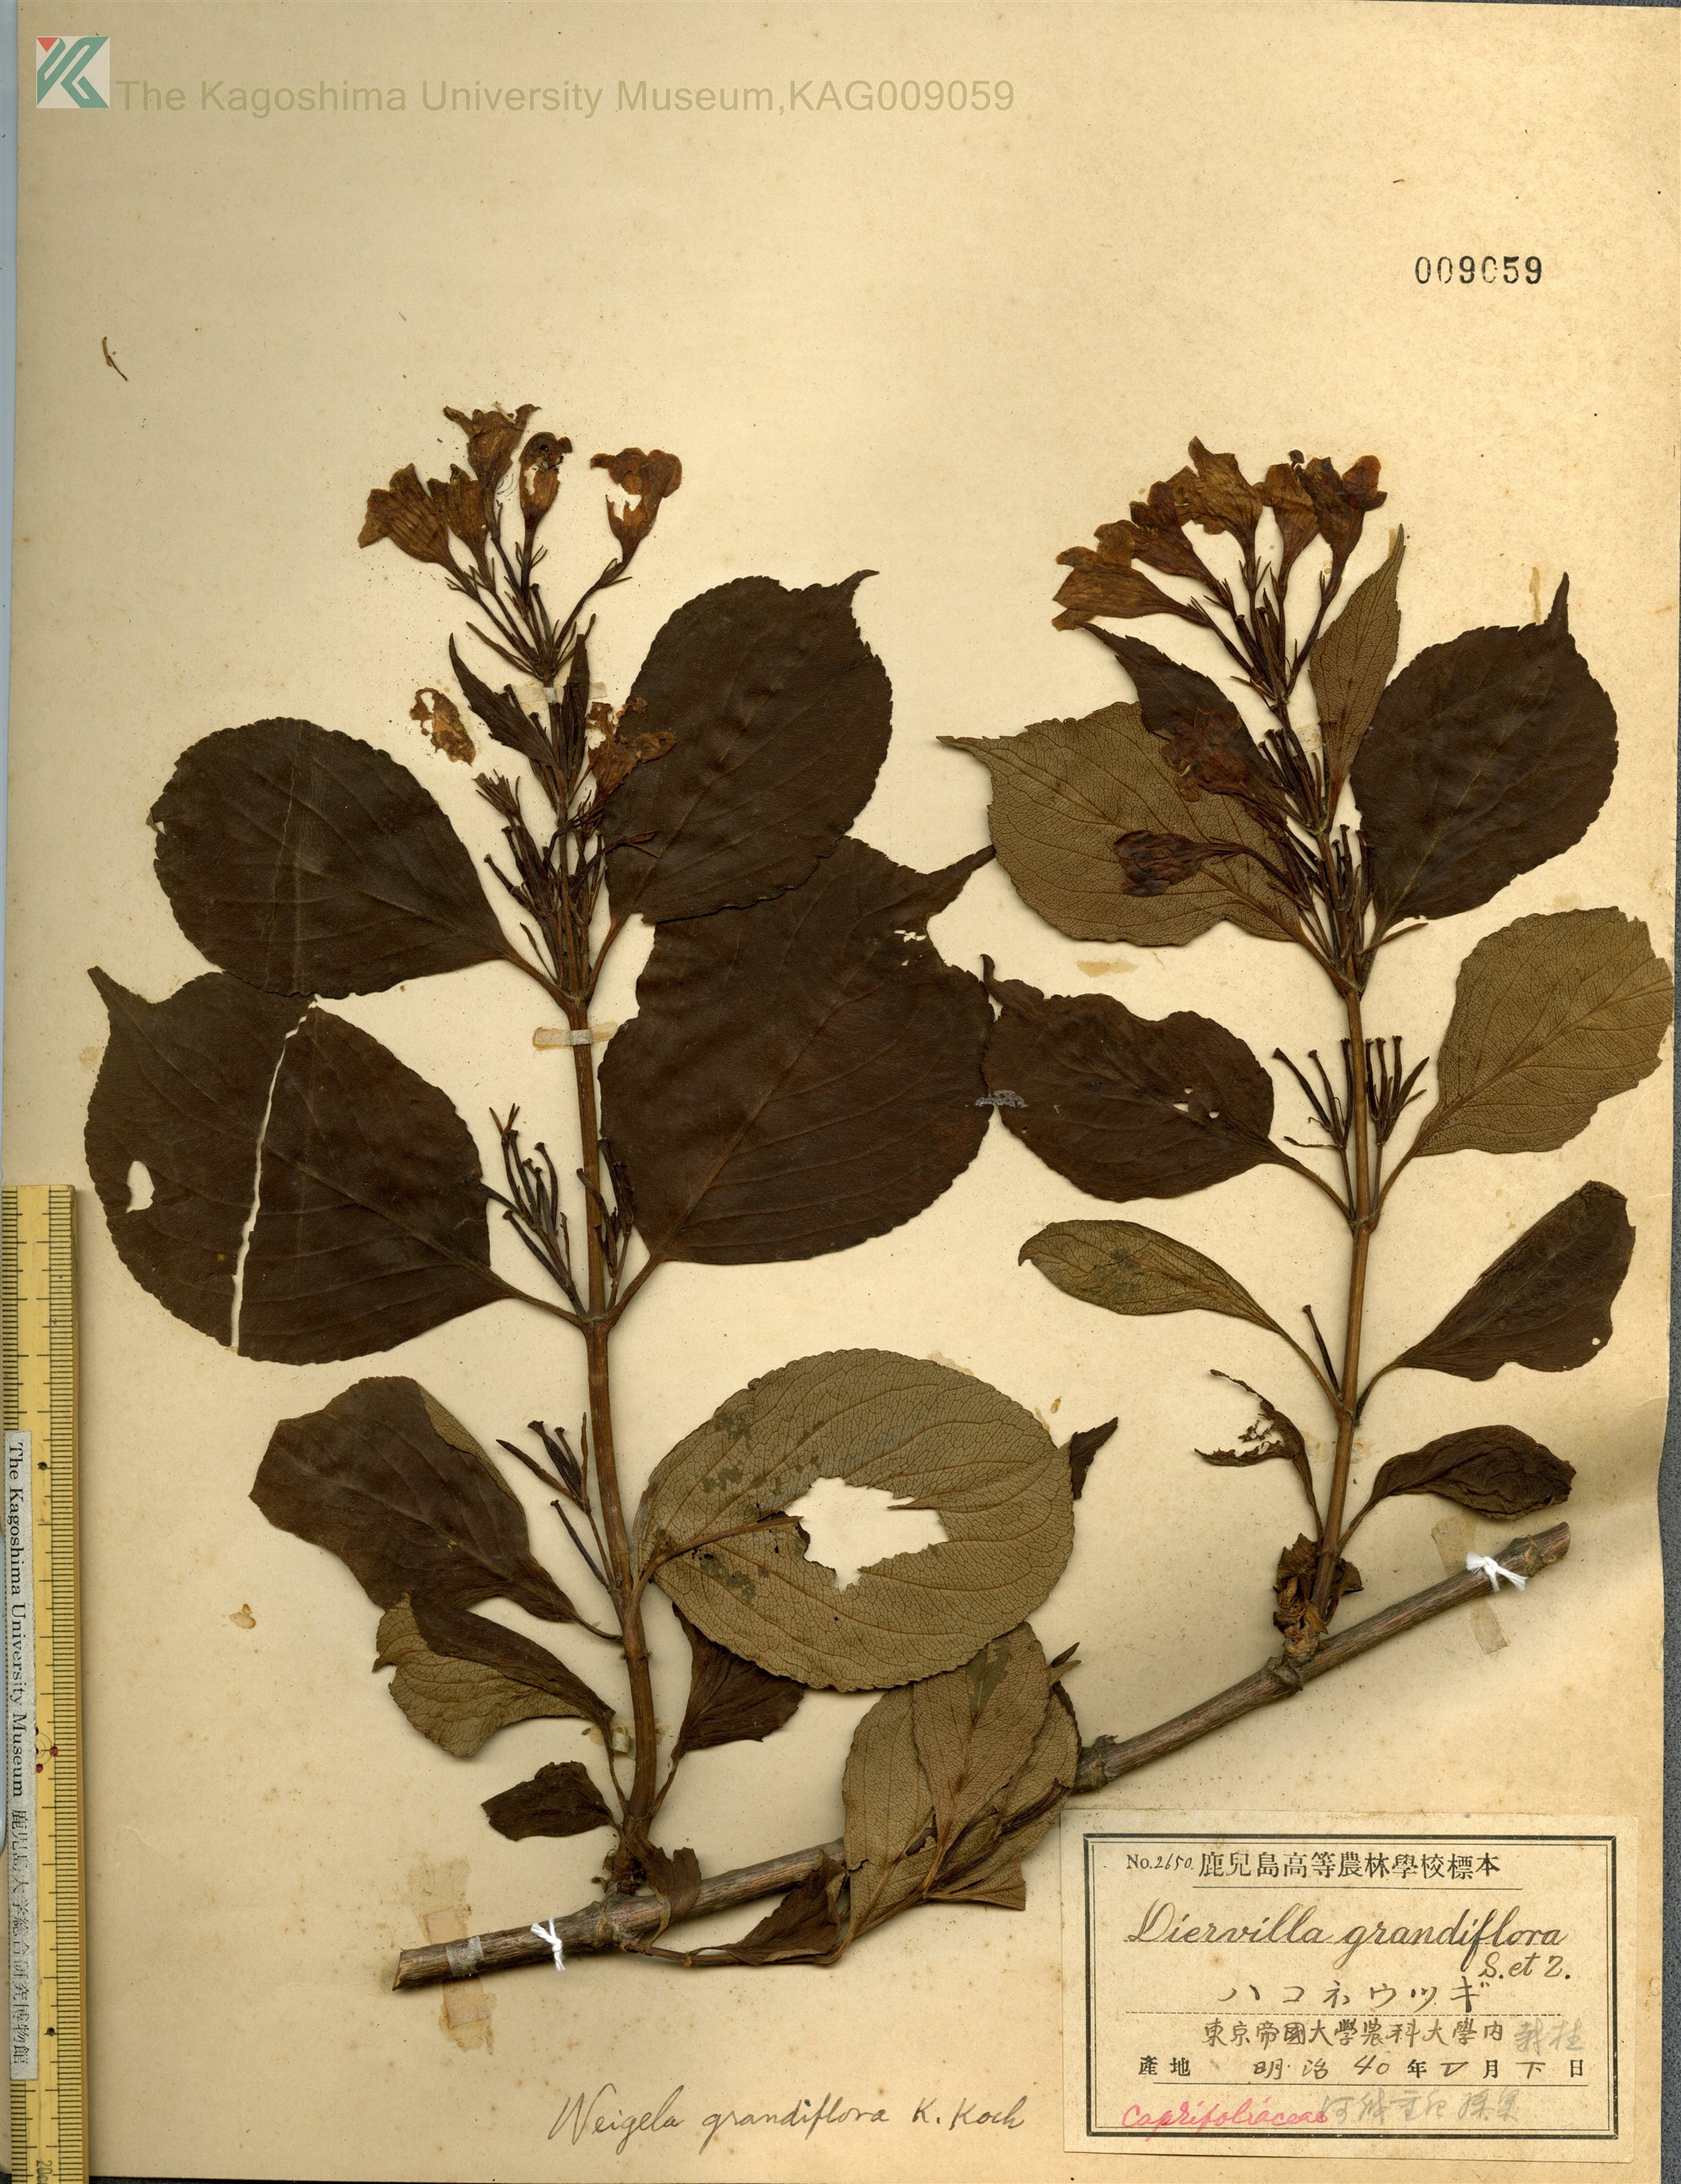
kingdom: Plantae
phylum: Tracheophyta
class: Magnoliopsida
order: Dipsacales
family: Caprifoliaceae
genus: Weigela
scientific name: Weigela decora
